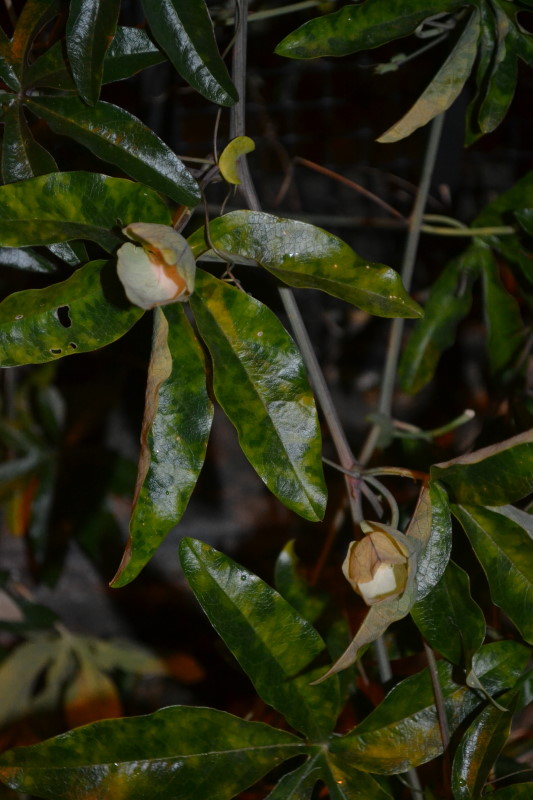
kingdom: Plantae
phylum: Tracheophyta
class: Magnoliopsida
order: Malpighiales
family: Passifloraceae
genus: Passiflora
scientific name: Passiflora caerulea
